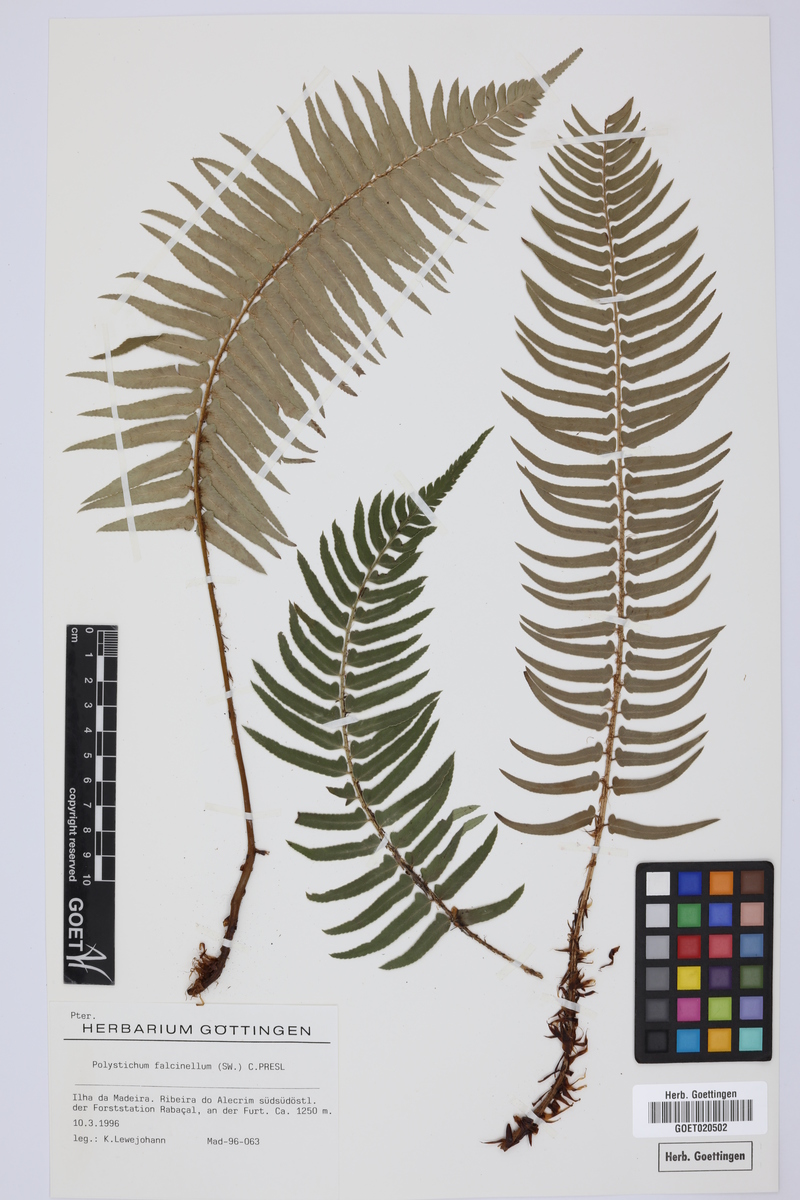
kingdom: Plantae
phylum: Tracheophyta
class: Polypodiopsida
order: Polypodiales
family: Dryopteridaceae
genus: Polystichum
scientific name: Polystichum falcinellum
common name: Madeira sword-fern
